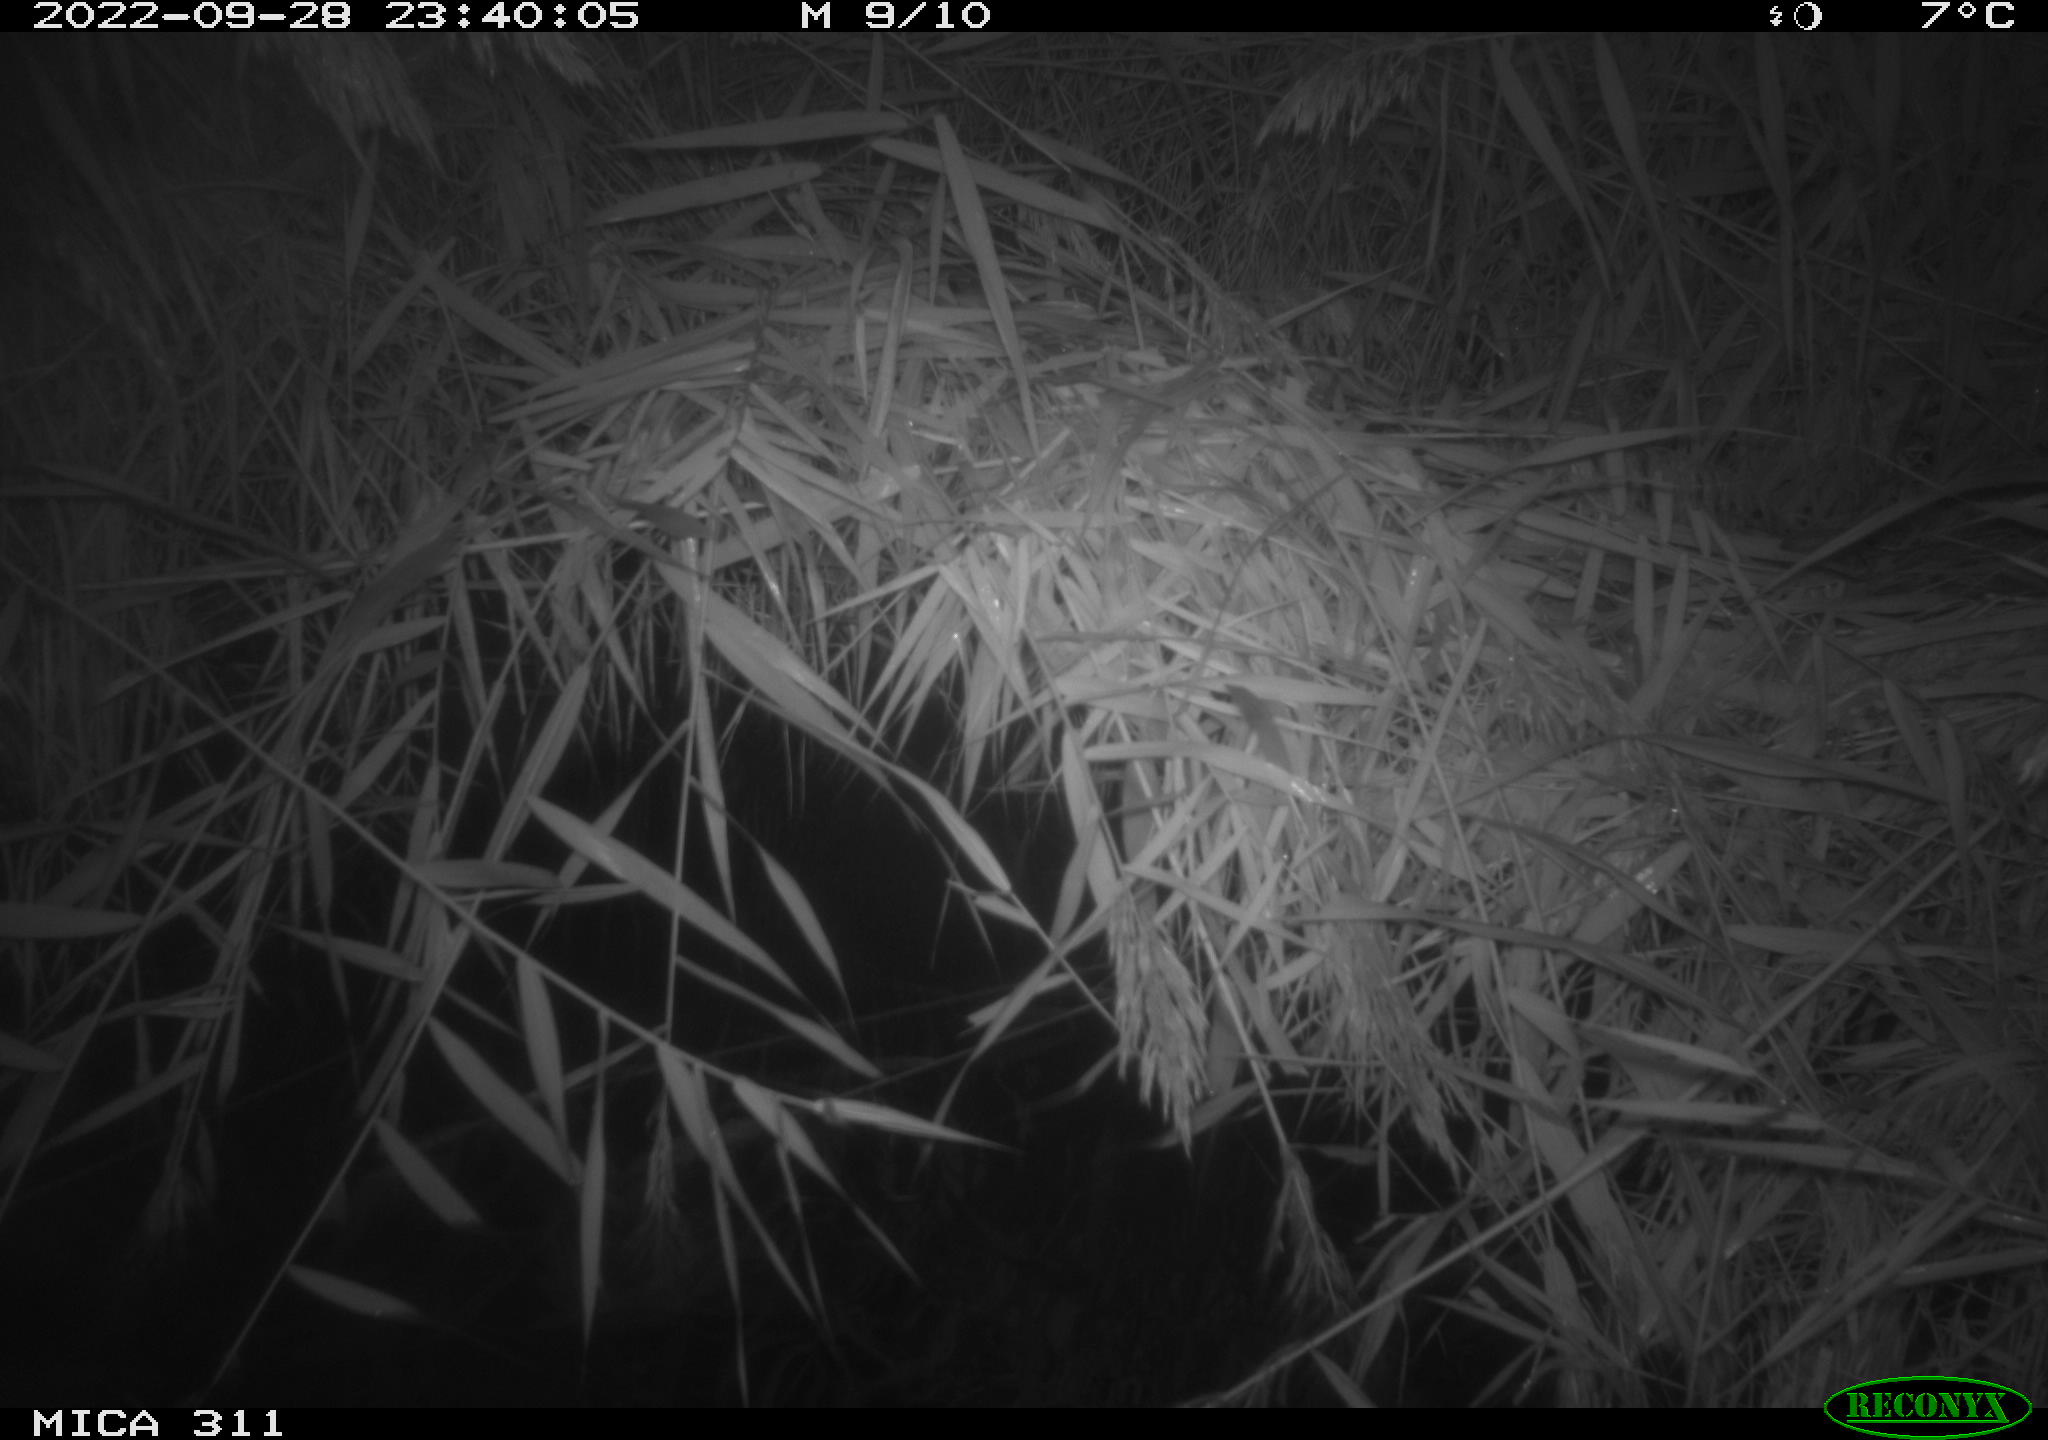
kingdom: Animalia
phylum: Chordata
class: Mammalia
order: Rodentia
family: Muridae
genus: Rattus
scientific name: Rattus norvegicus
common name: Brown rat
